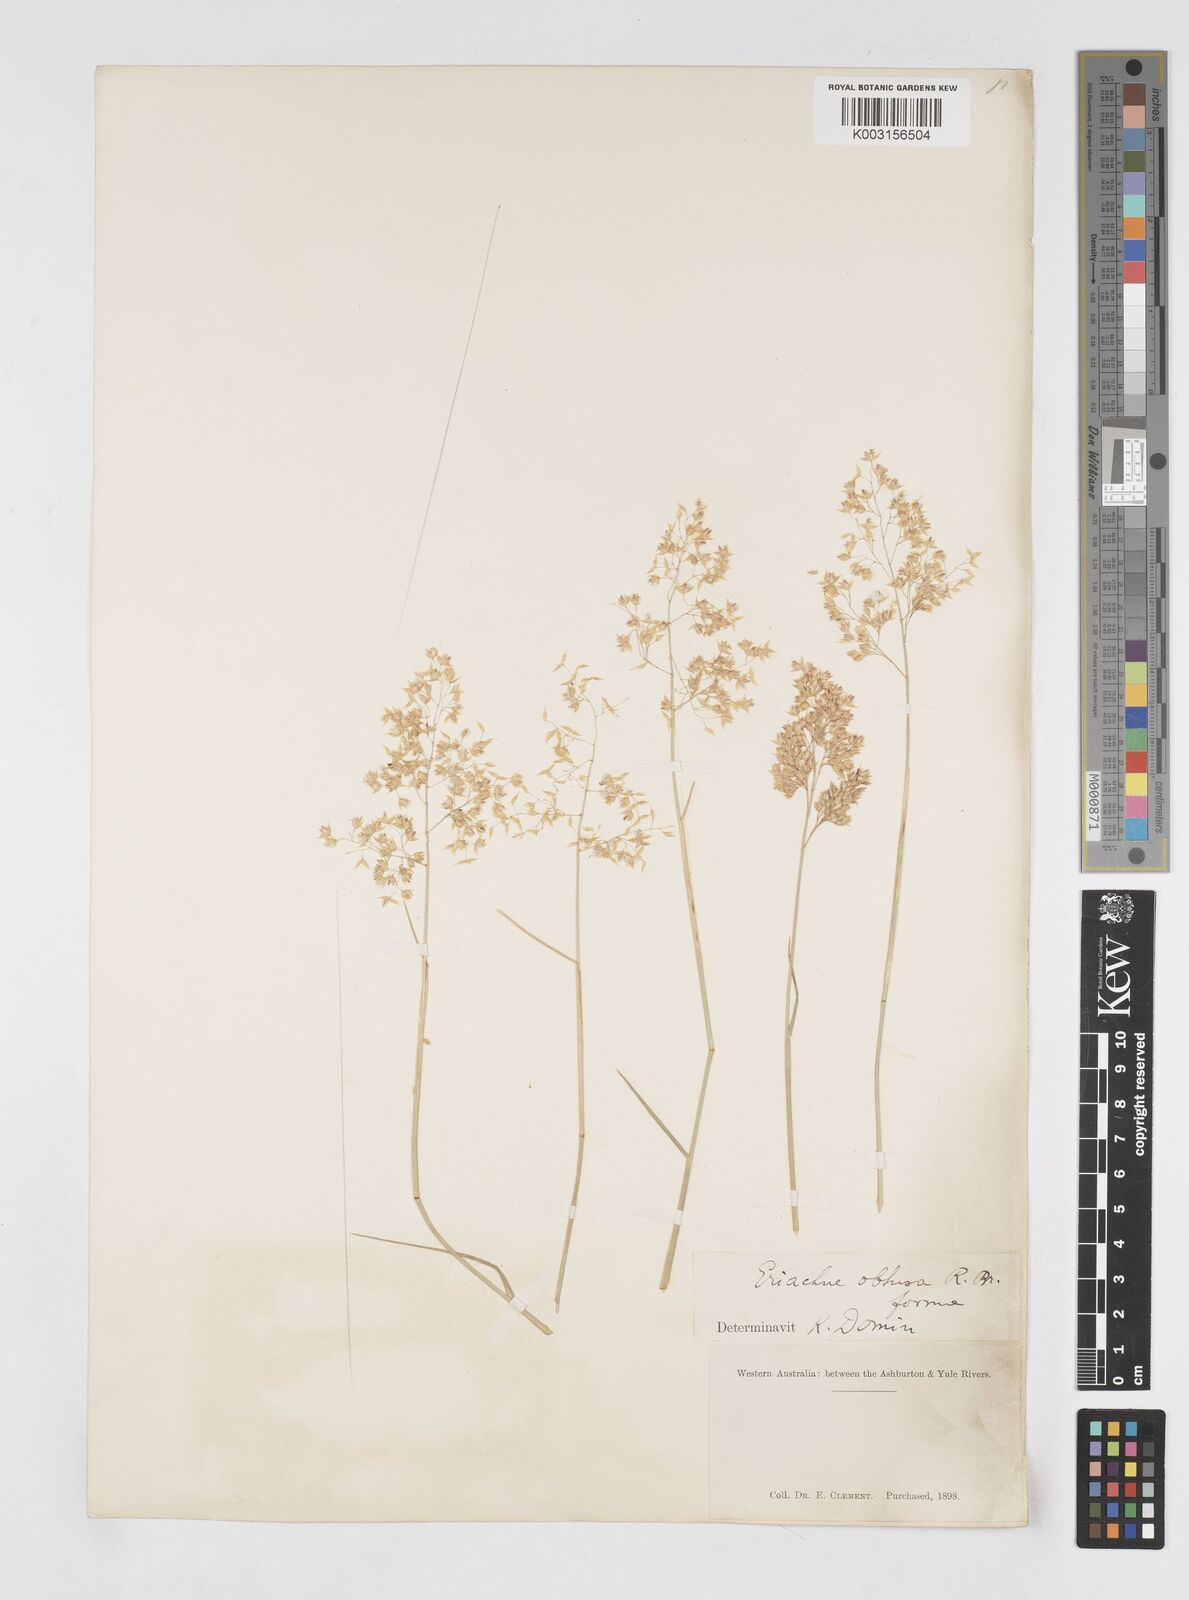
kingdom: Plantae
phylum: Tracheophyta
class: Liliopsida
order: Poales
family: Poaceae
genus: Eriachne
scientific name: Eriachne obtusa
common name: Northern wanderrie grass
